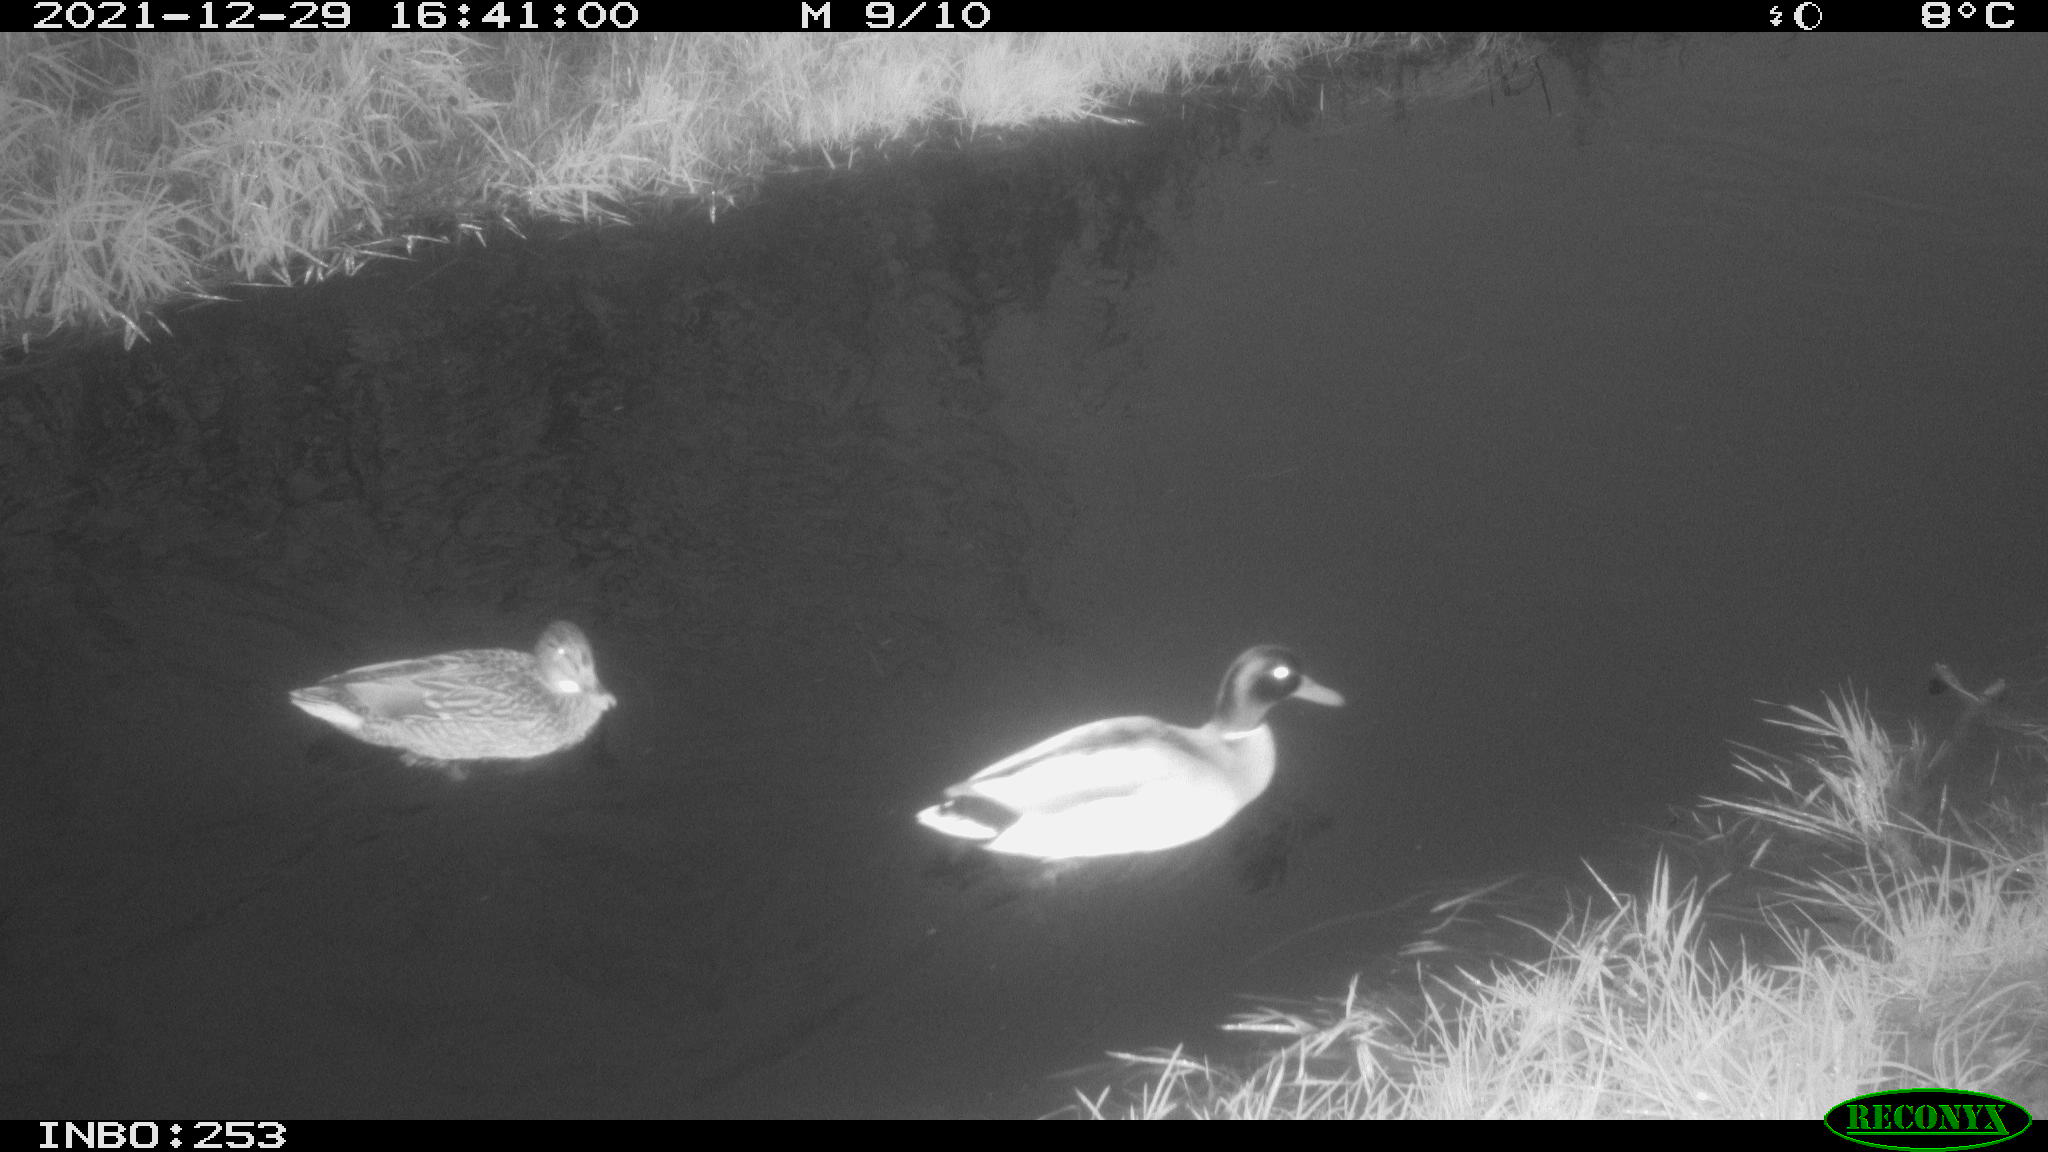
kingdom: Animalia
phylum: Chordata
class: Aves
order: Anseriformes
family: Anatidae
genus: Anas
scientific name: Anas
